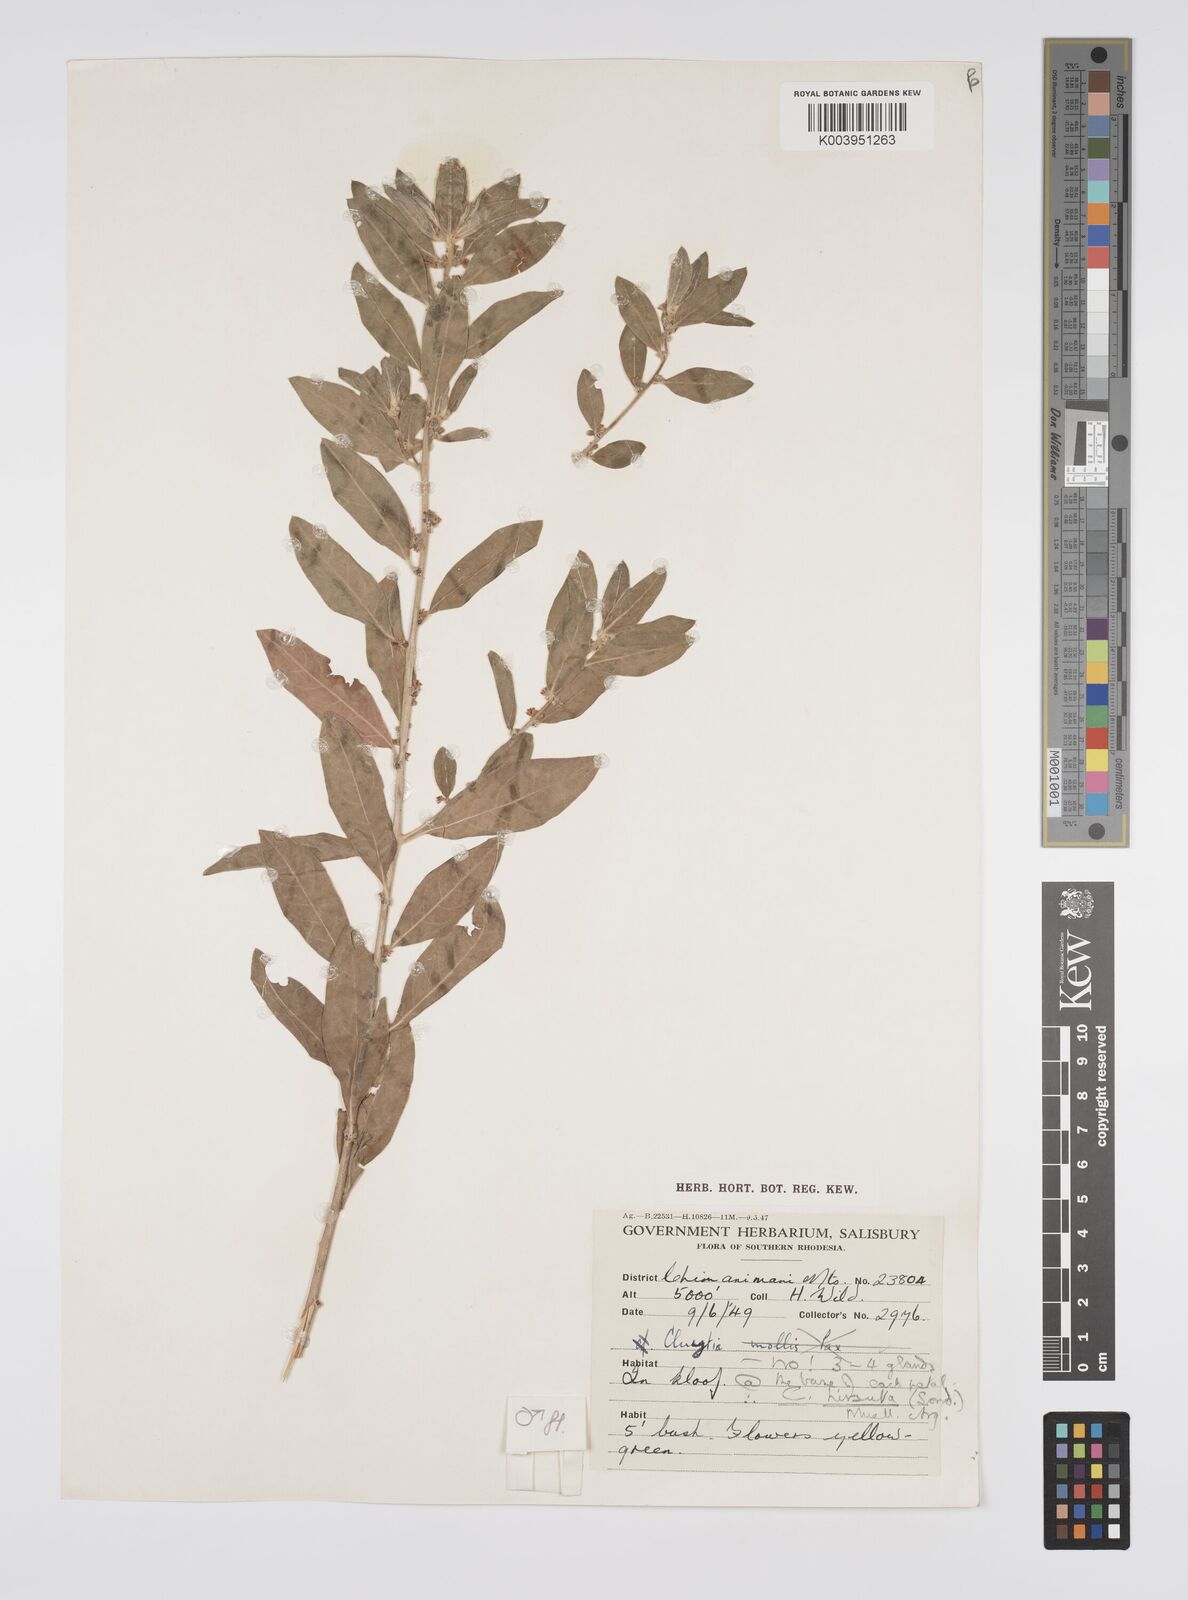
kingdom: Plantae
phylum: Tracheophyta
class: Magnoliopsida
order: Malpighiales
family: Peraceae
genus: Clutia
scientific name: Clutia
